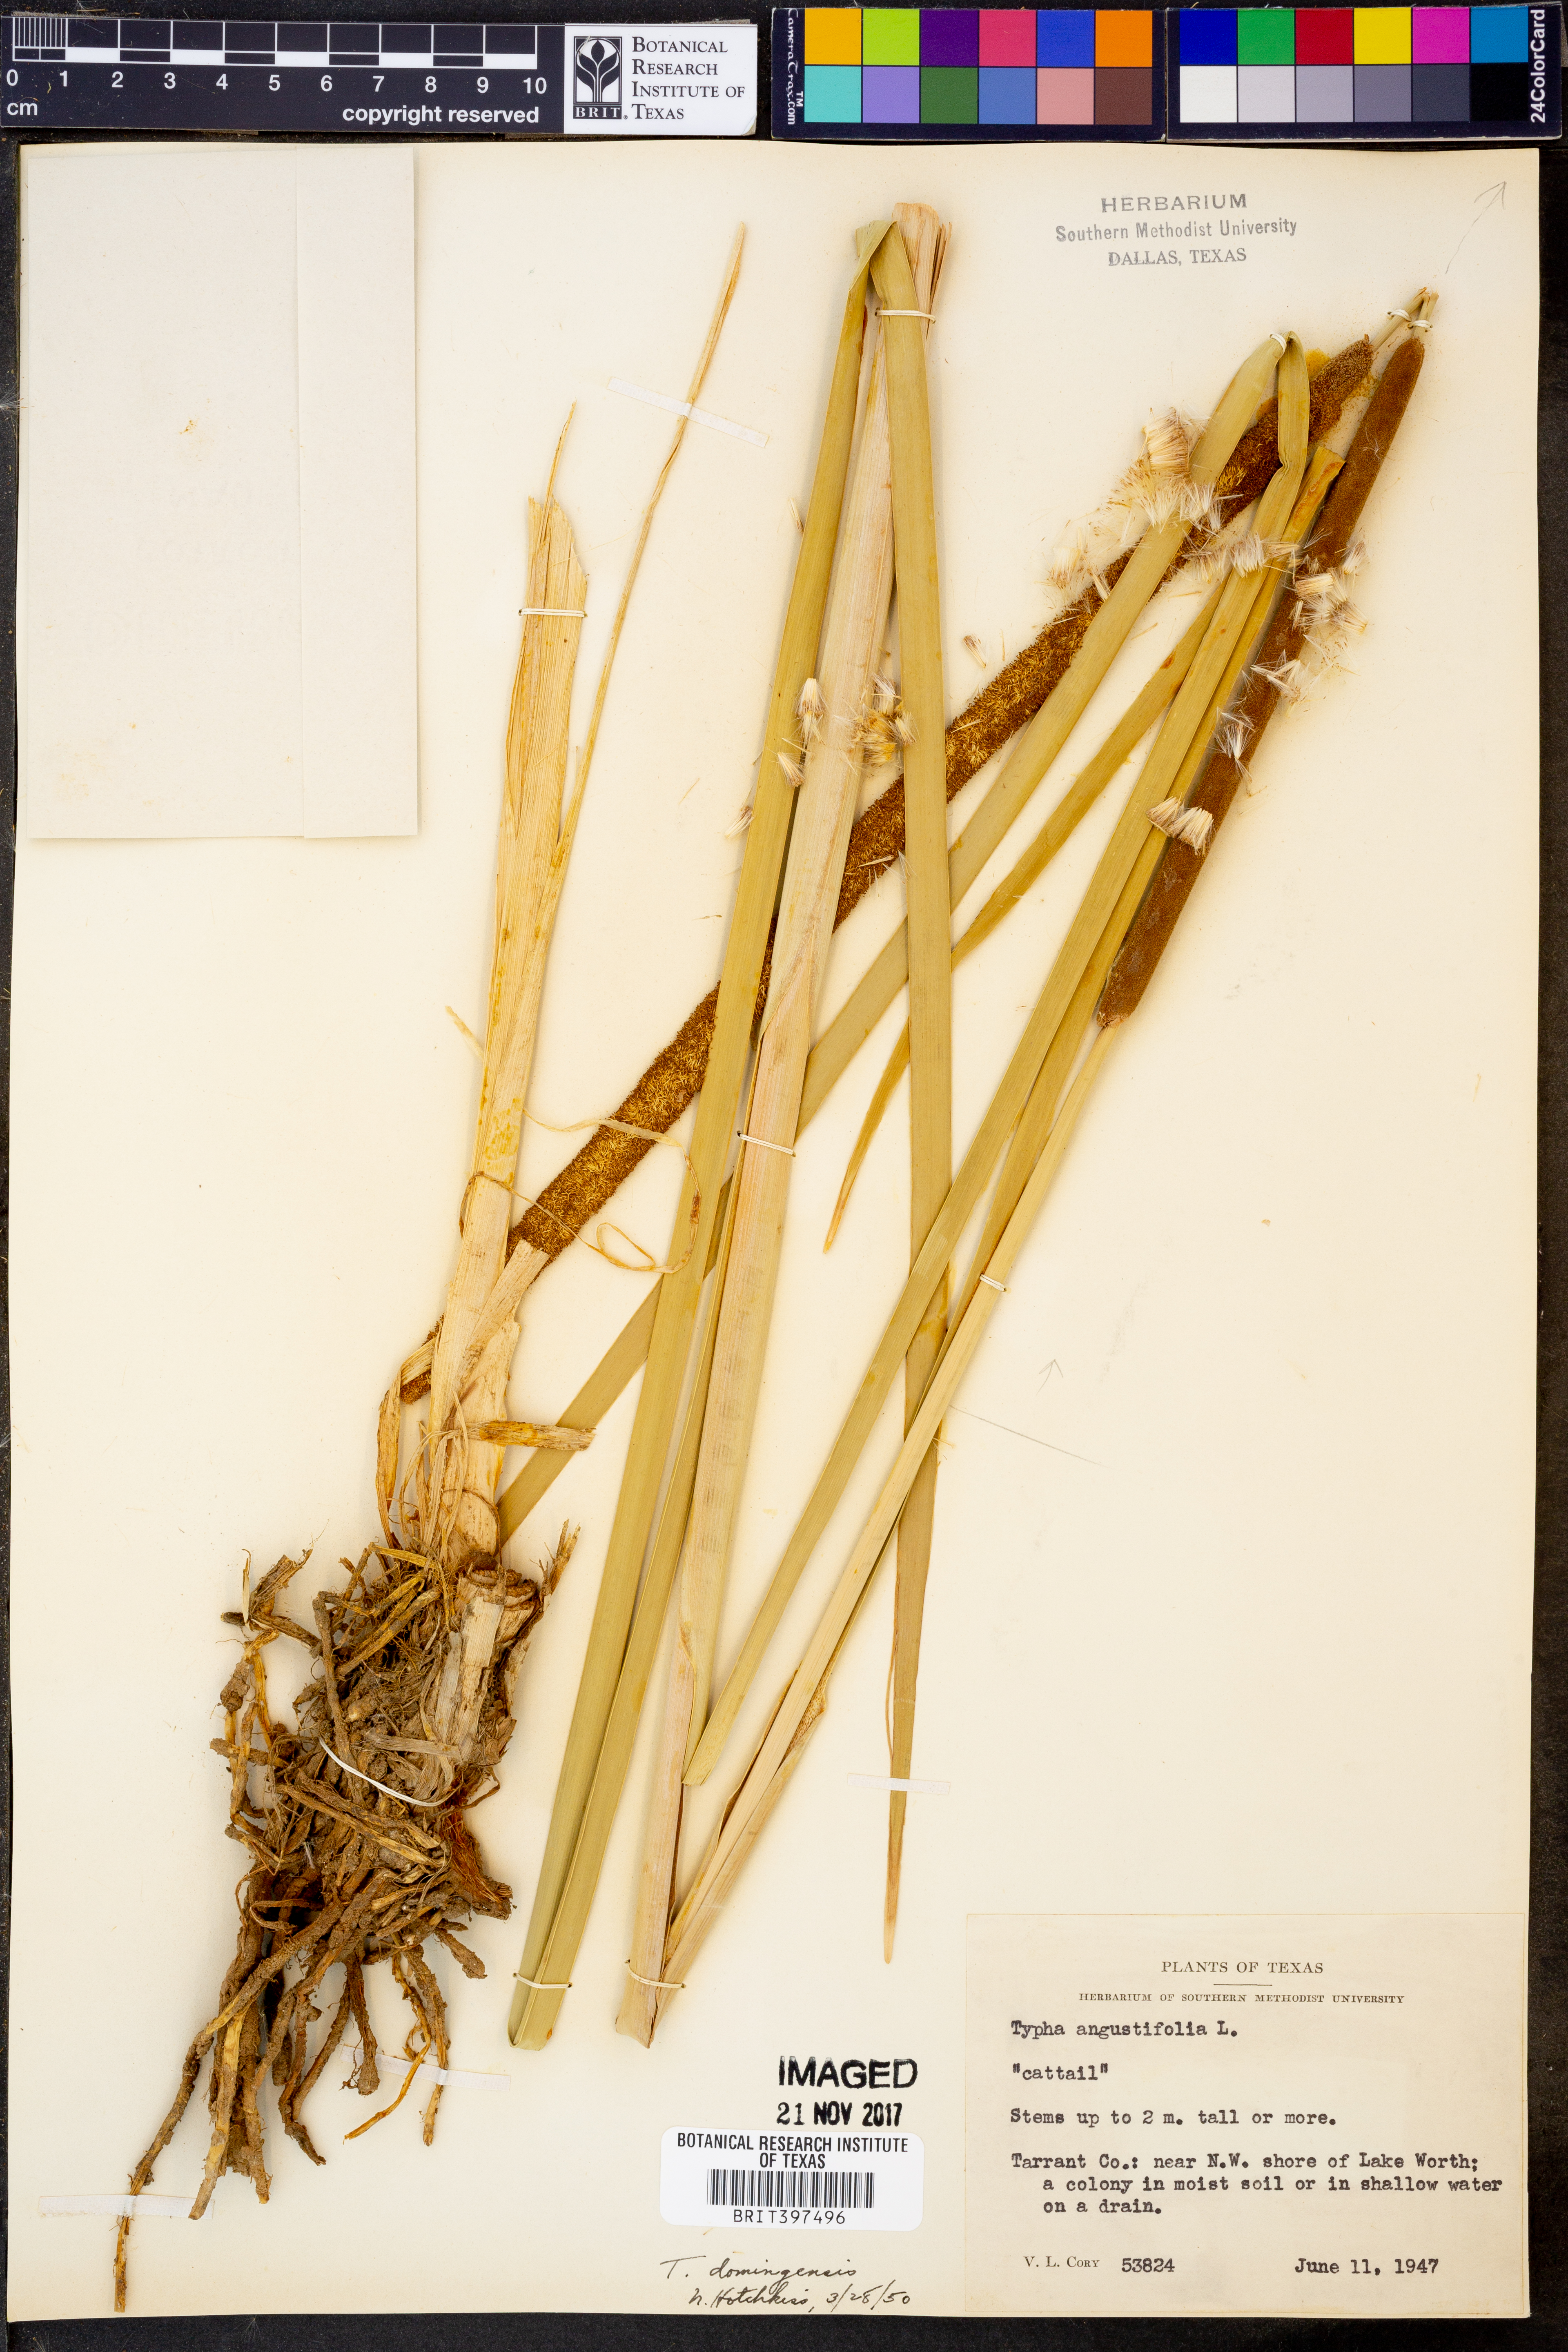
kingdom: Plantae
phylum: Tracheophyta
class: Liliopsida
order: Poales
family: Typhaceae
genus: Typha
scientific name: Typha domingensis
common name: Southern cattail
